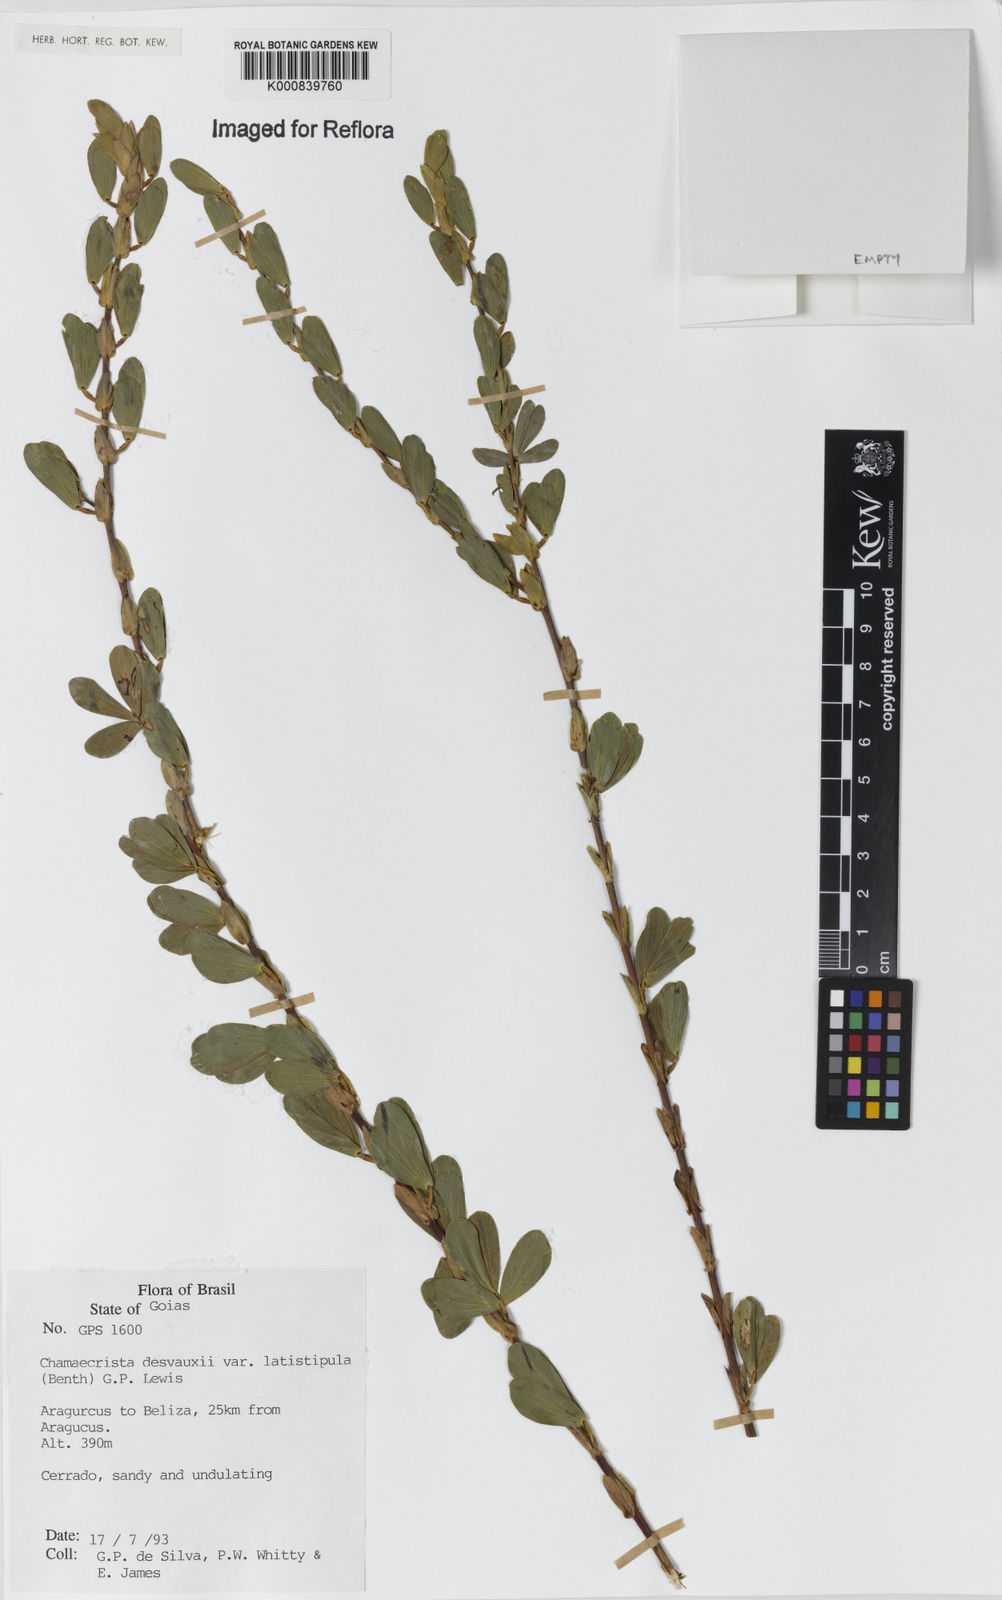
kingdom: Plantae
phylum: Tracheophyta
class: Magnoliopsida
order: Fabales
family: Fabaceae
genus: Chamaecrista
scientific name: Chamaecrista desvauxii
